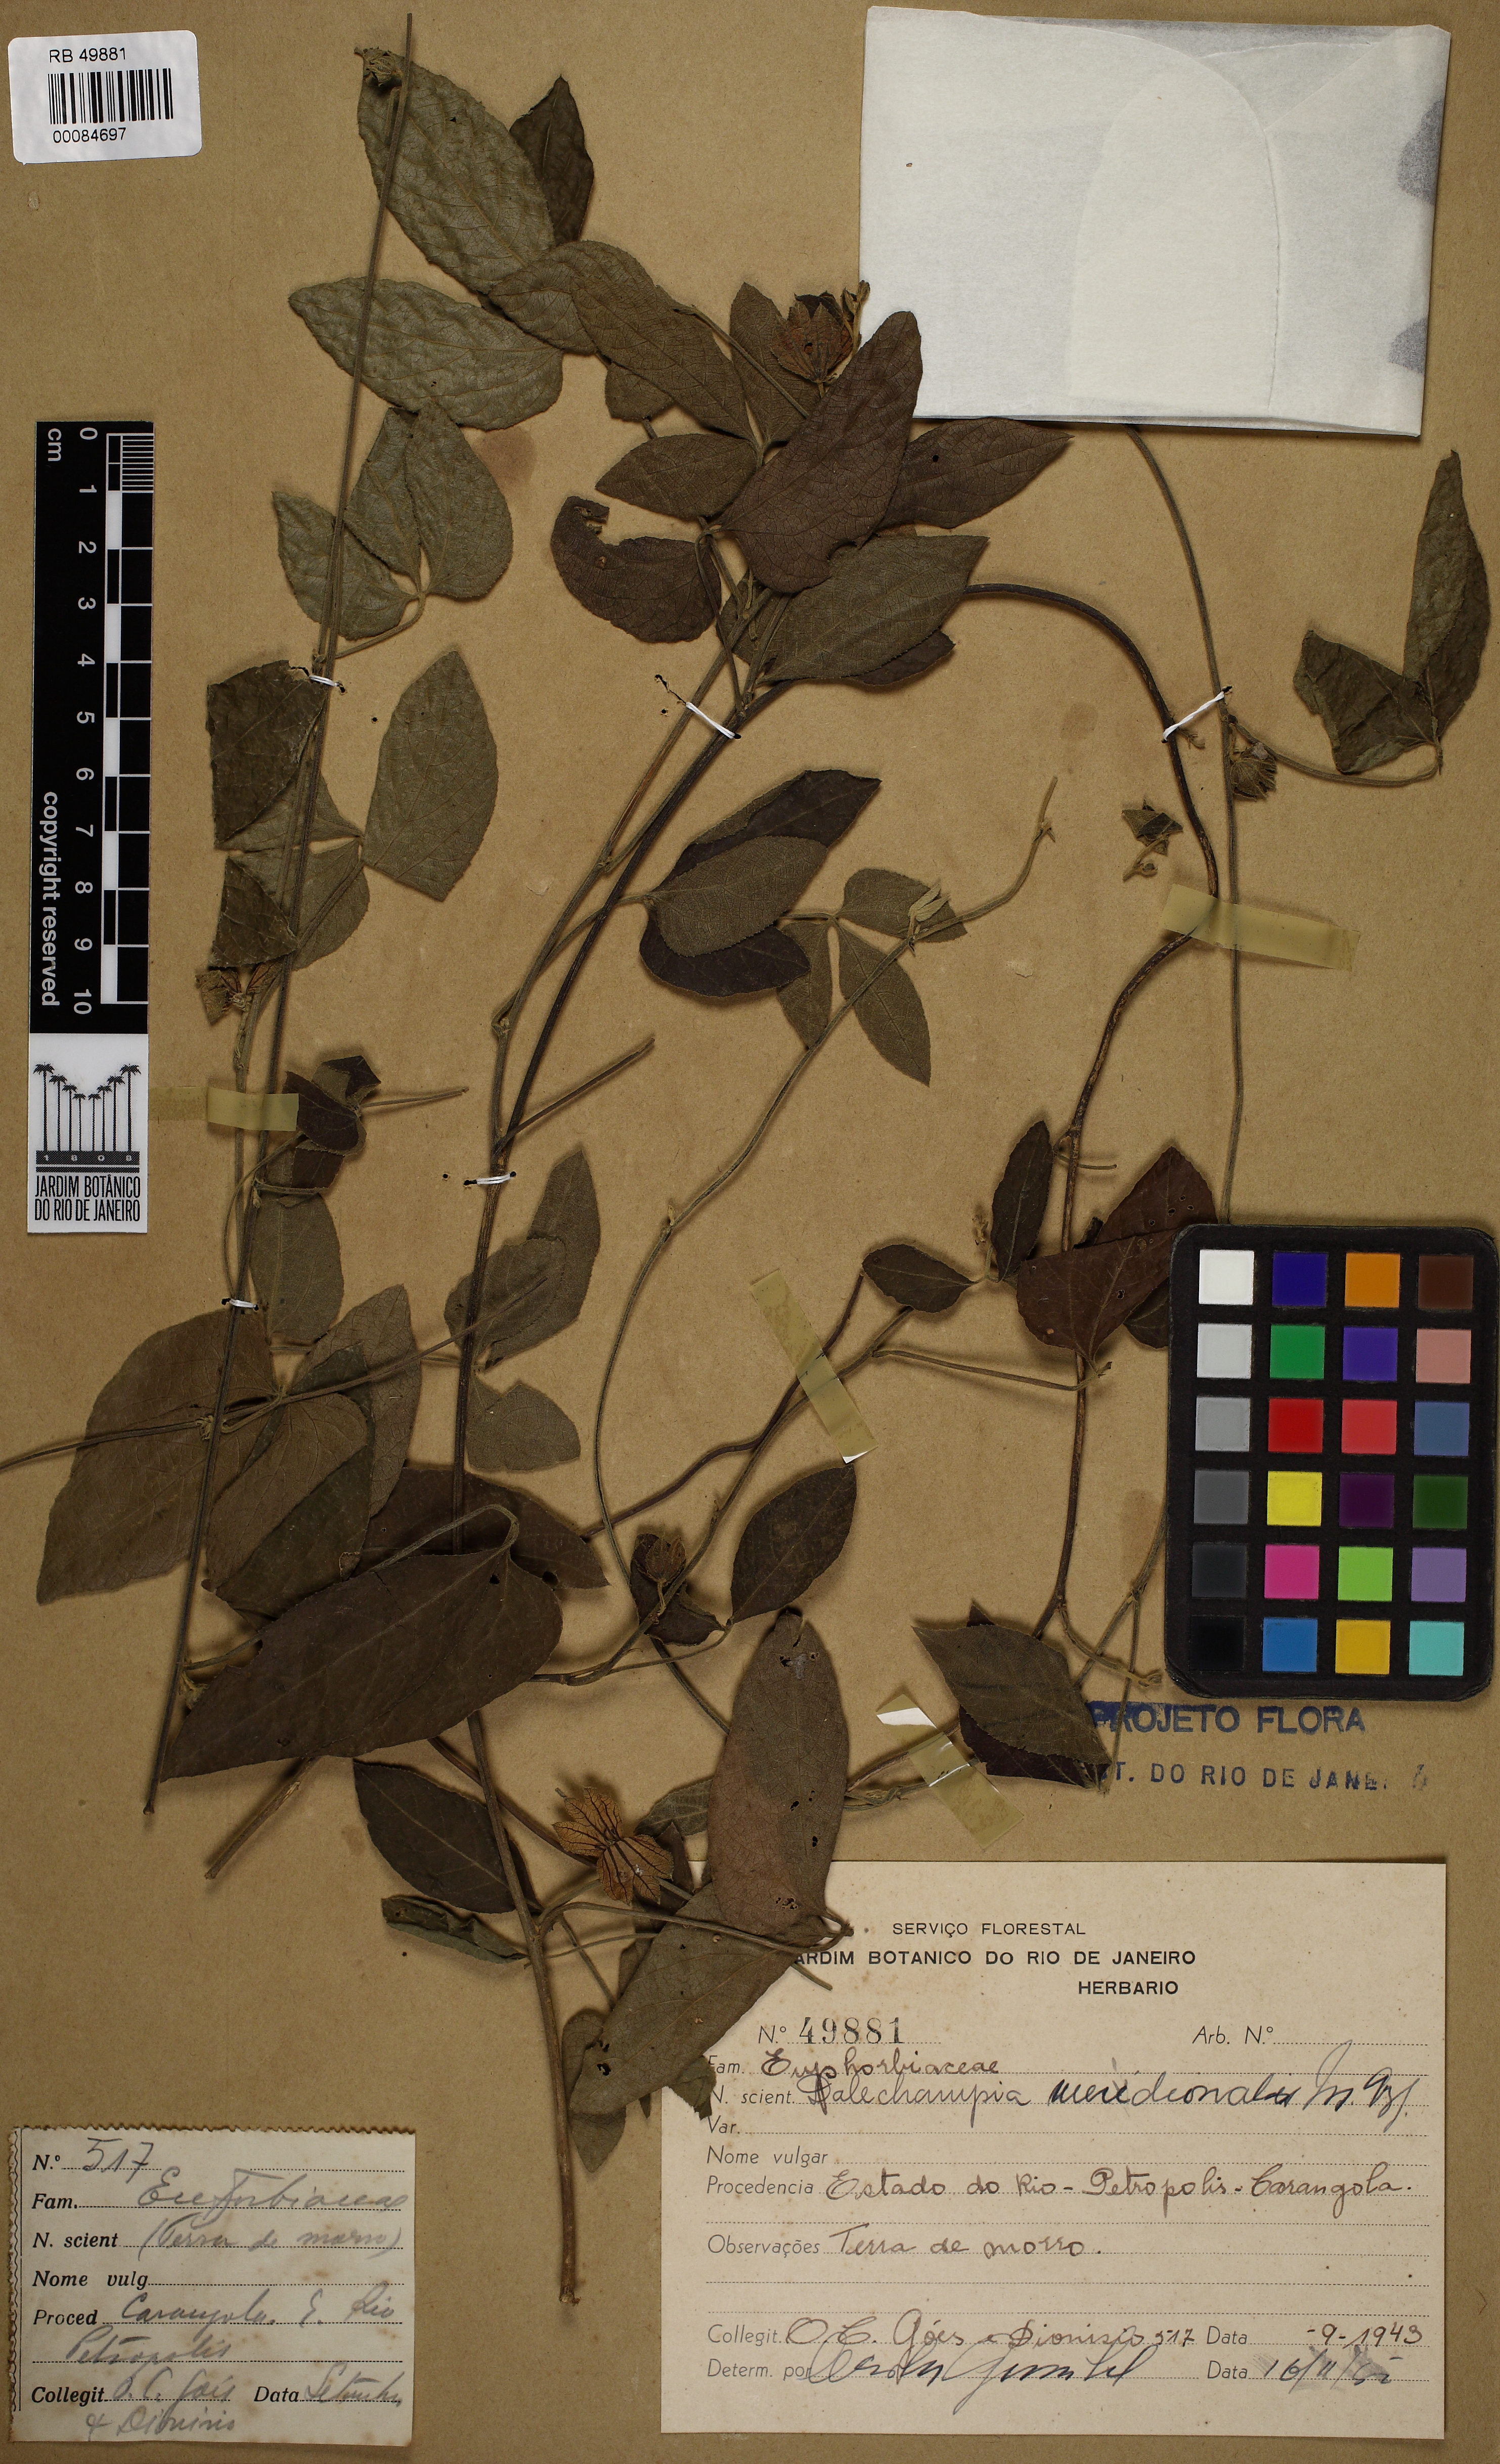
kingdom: Plantae
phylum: Tracheophyta
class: Magnoliopsida
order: Malpighiales
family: Euphorbiaceae
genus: Dalechampia
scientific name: Dalechampia meridionalis
